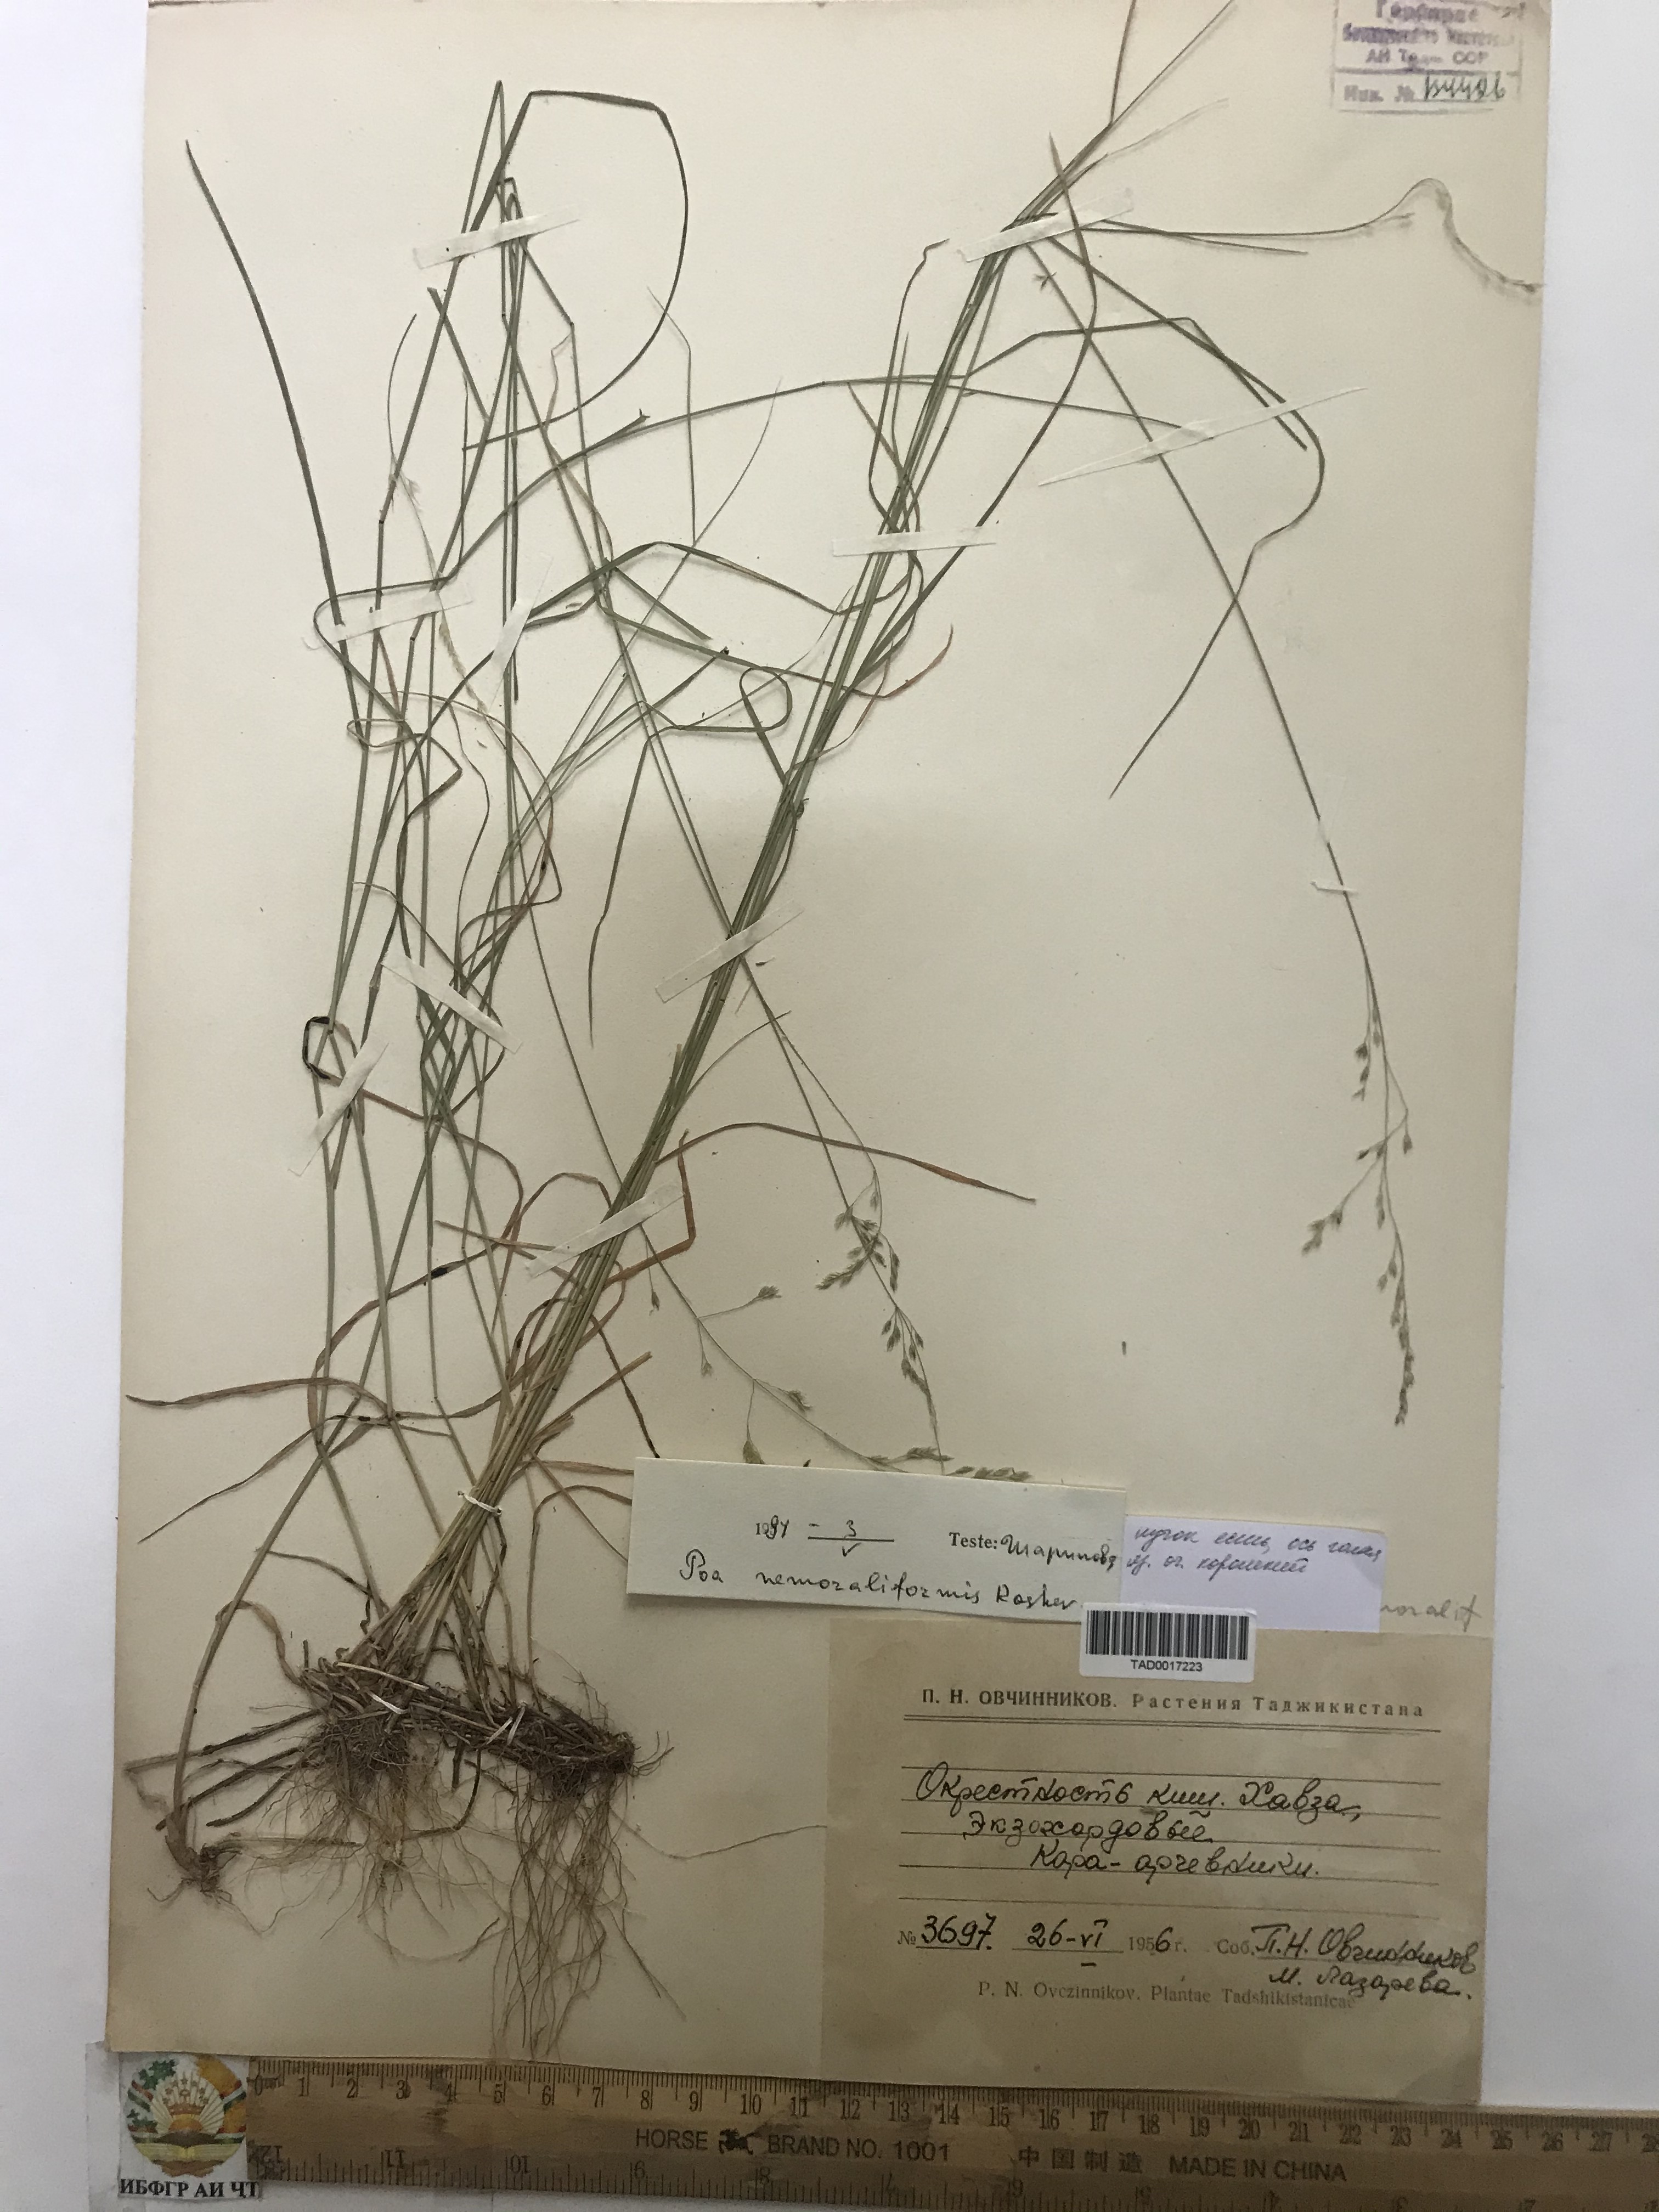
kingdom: Plantae
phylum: Tracheophyta
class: Liliopsida
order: Poales
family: Poaceae
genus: Poa
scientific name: Poa urssulensis
